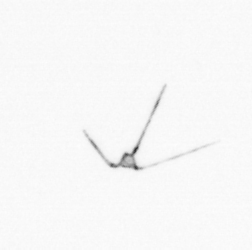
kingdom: Chromista
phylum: Myzozoa
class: Dinophyceae
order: Gonyaulacales
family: Ceratiaceae
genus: Ceratium
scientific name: Ceratium
